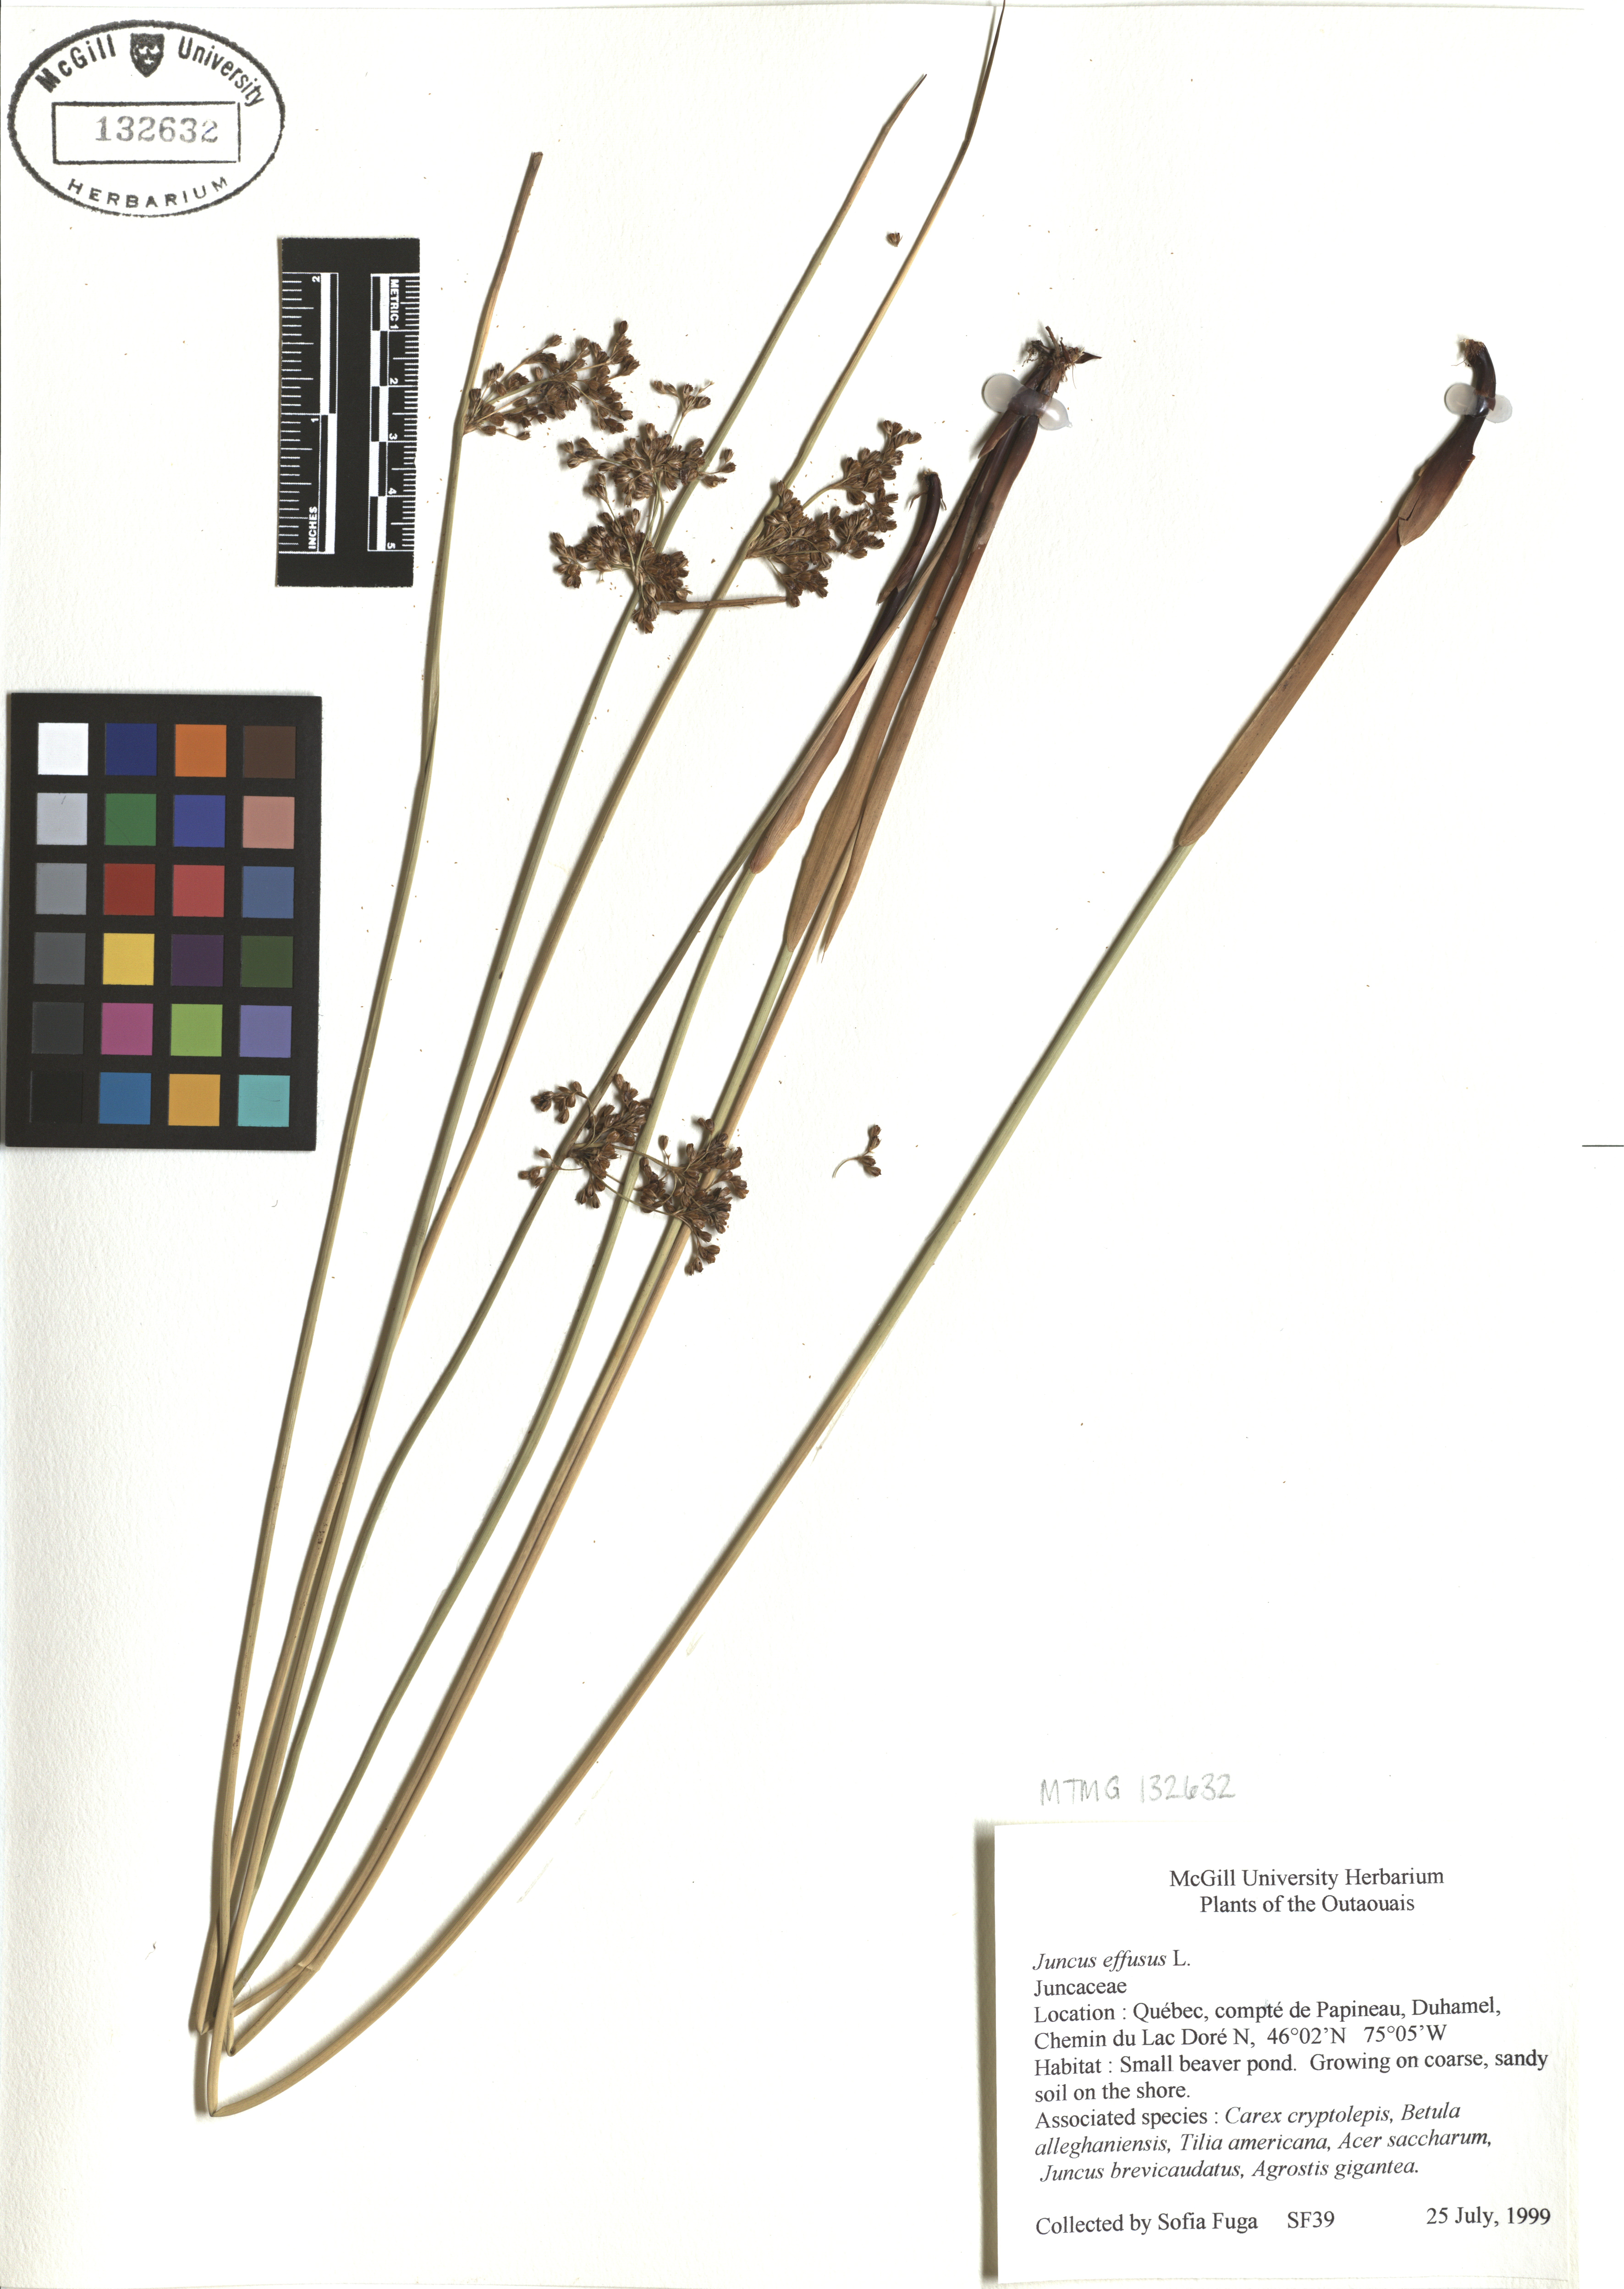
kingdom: Plantae
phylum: Tracheophyta
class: Liliopsida
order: Poales
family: Juncaceae
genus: Juncus
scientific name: Juncus effusus
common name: Soft rush
